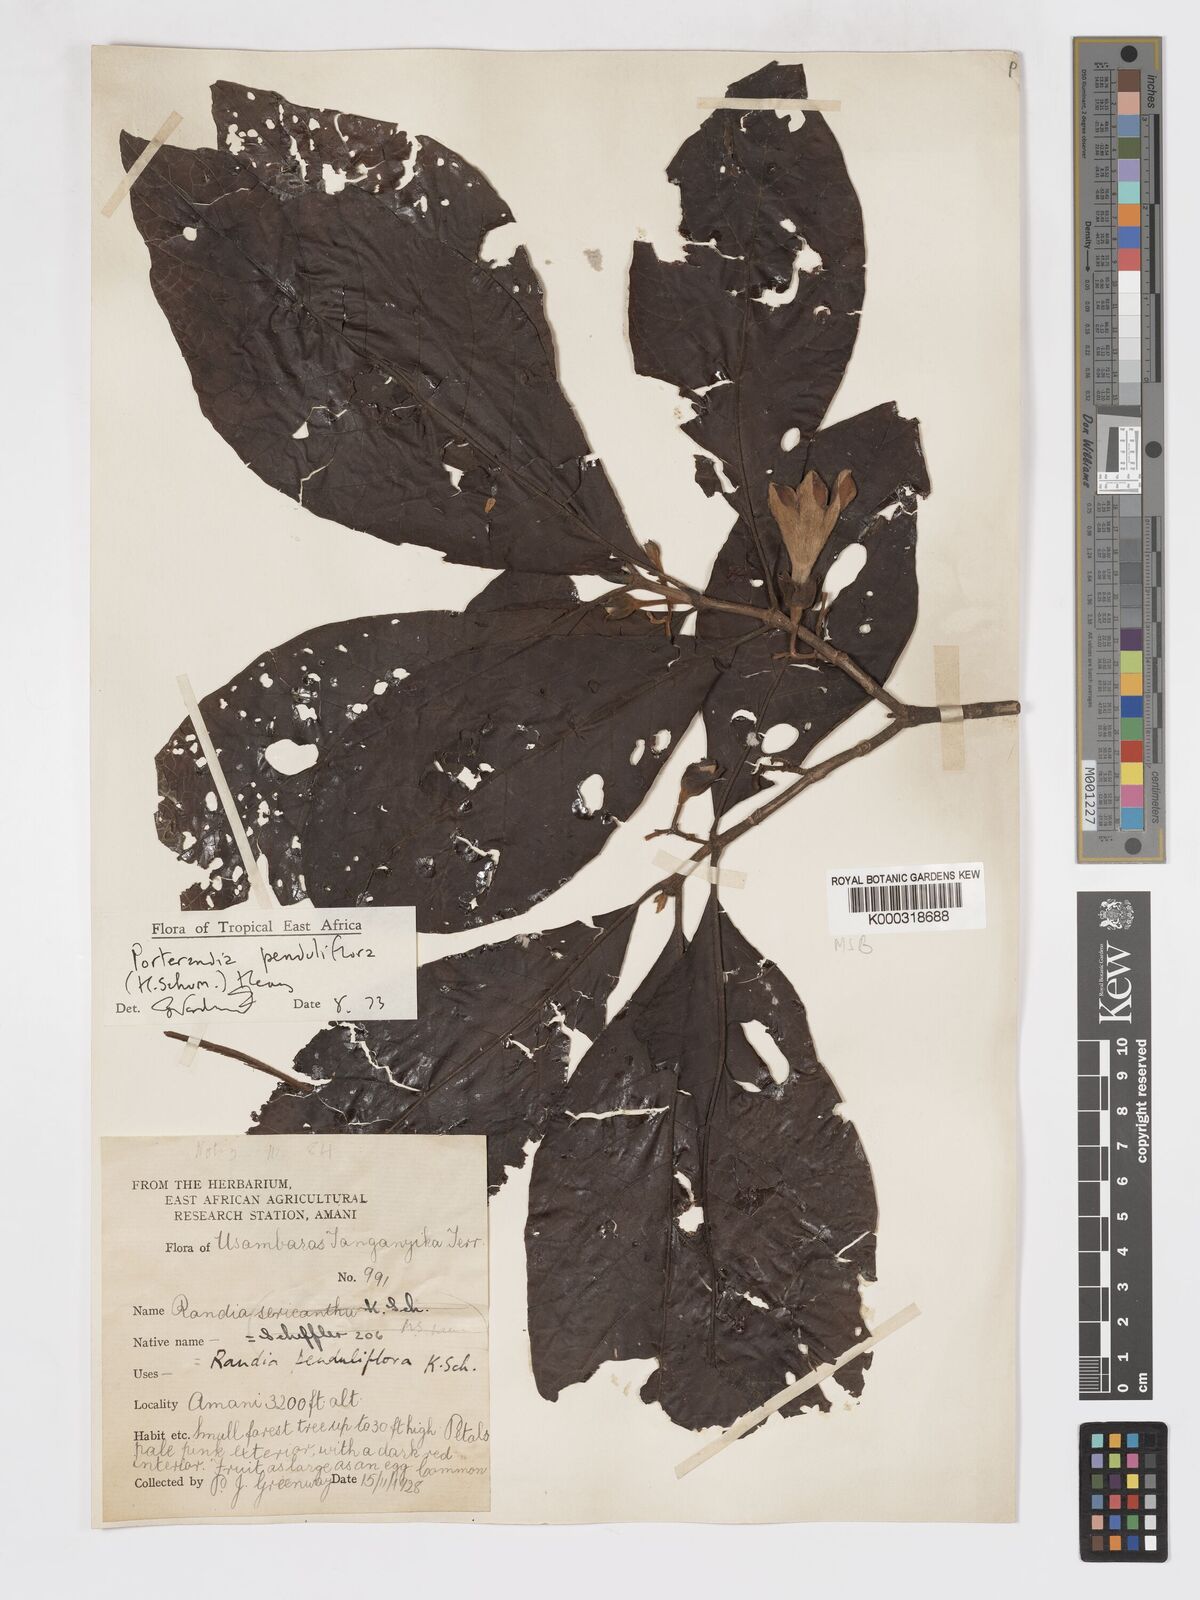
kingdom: Plantae
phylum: Tracheophyta
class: Magnoliopsida
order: Gentianales
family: Rubiaceae
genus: Aoranthe
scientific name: Aoranthe penduliflora
